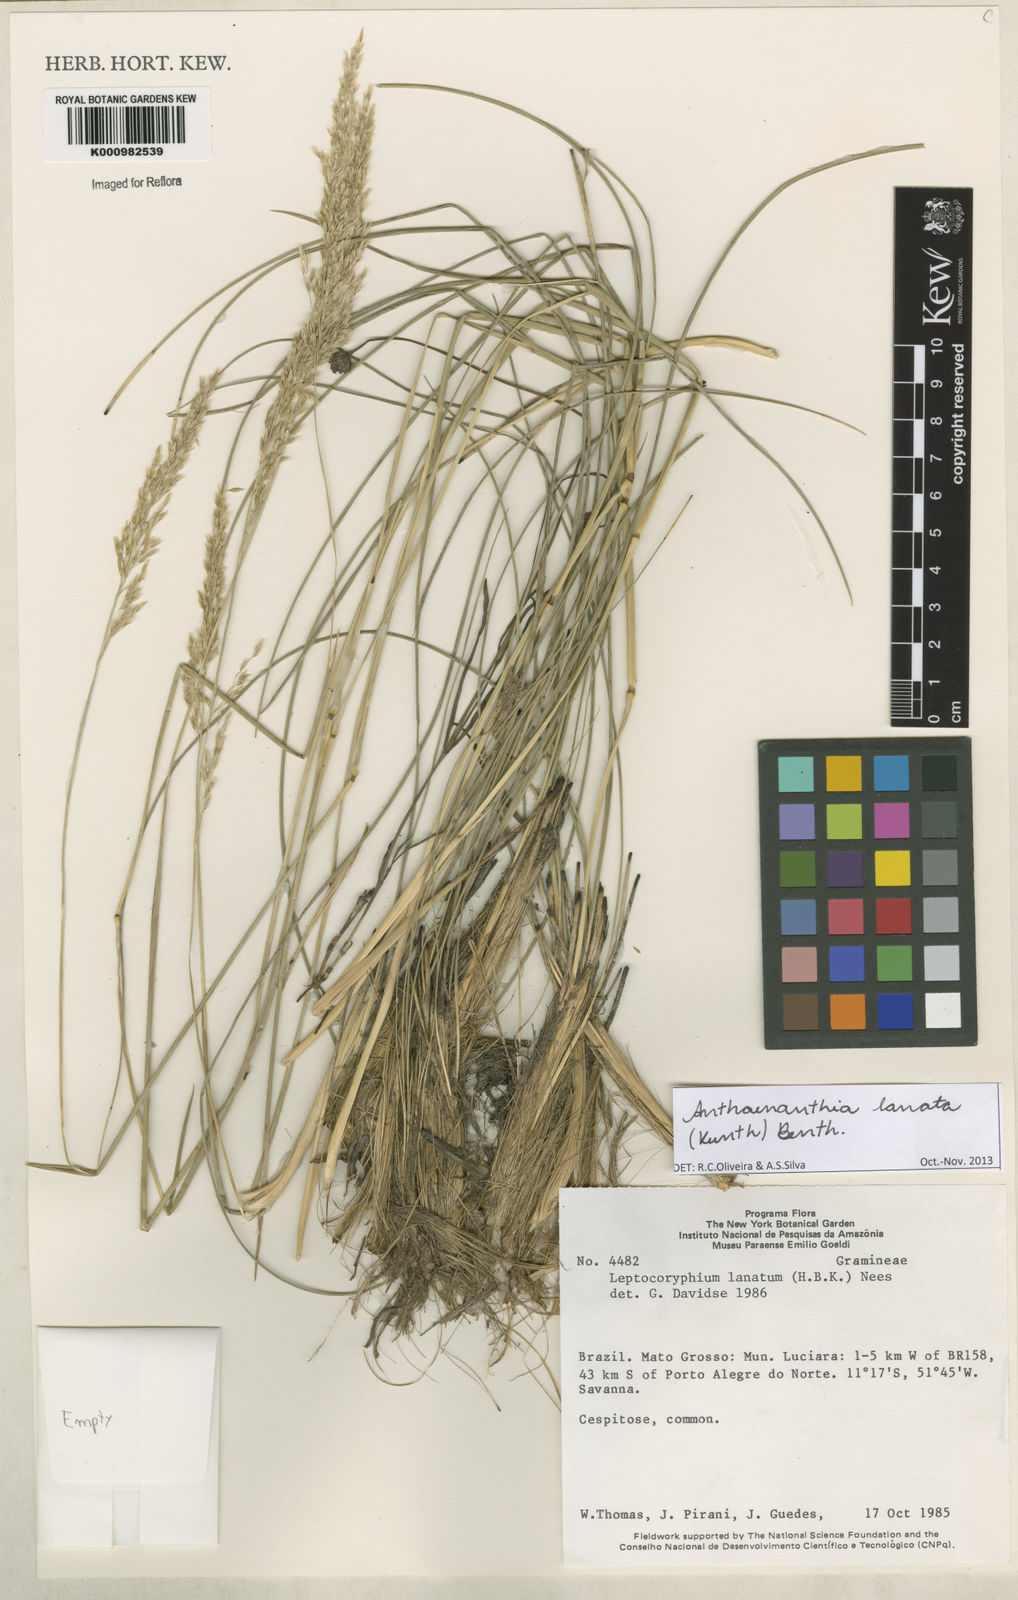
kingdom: Plantae
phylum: Tracheophyta
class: Liliopsida
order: Poales
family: Poaceae
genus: Anthenantia
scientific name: Anthenantia lanata
